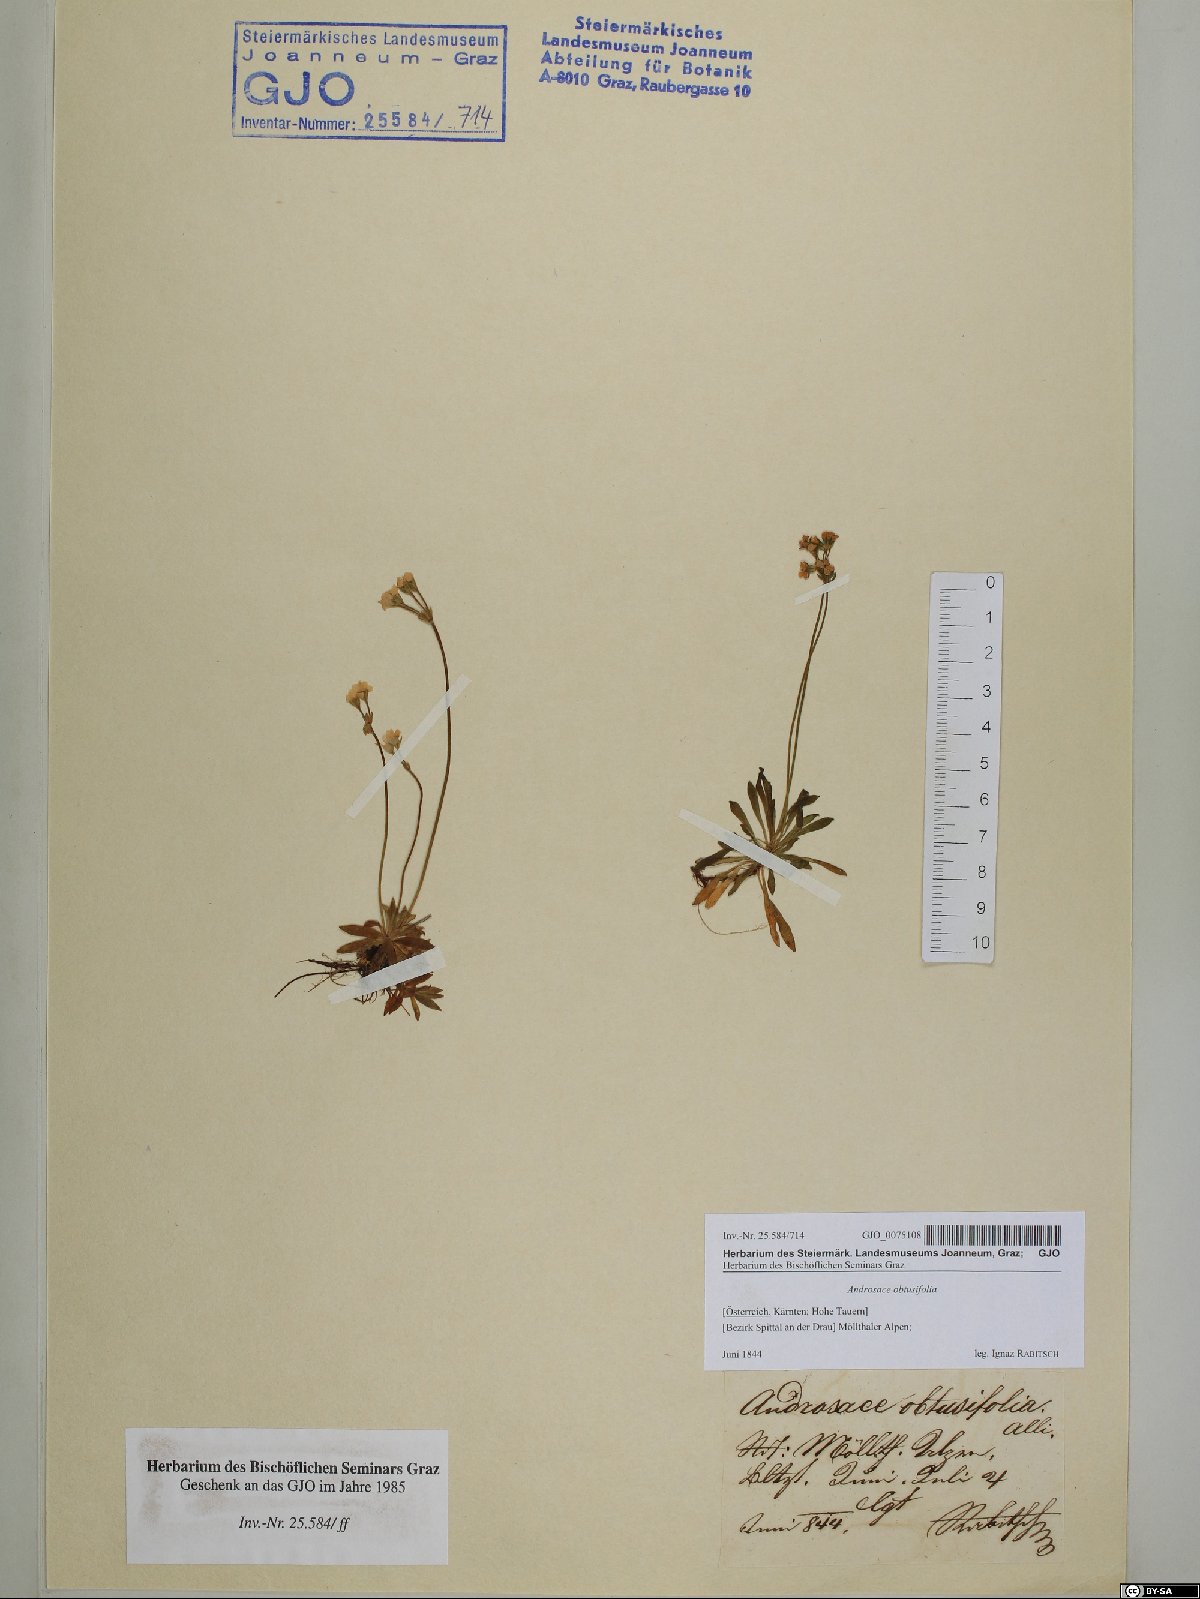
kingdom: Plantae
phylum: Tracheophyta
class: Magnoliopsida
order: Ericales
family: Primulaceae
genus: Androsace
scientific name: Androsace obtusifolia
